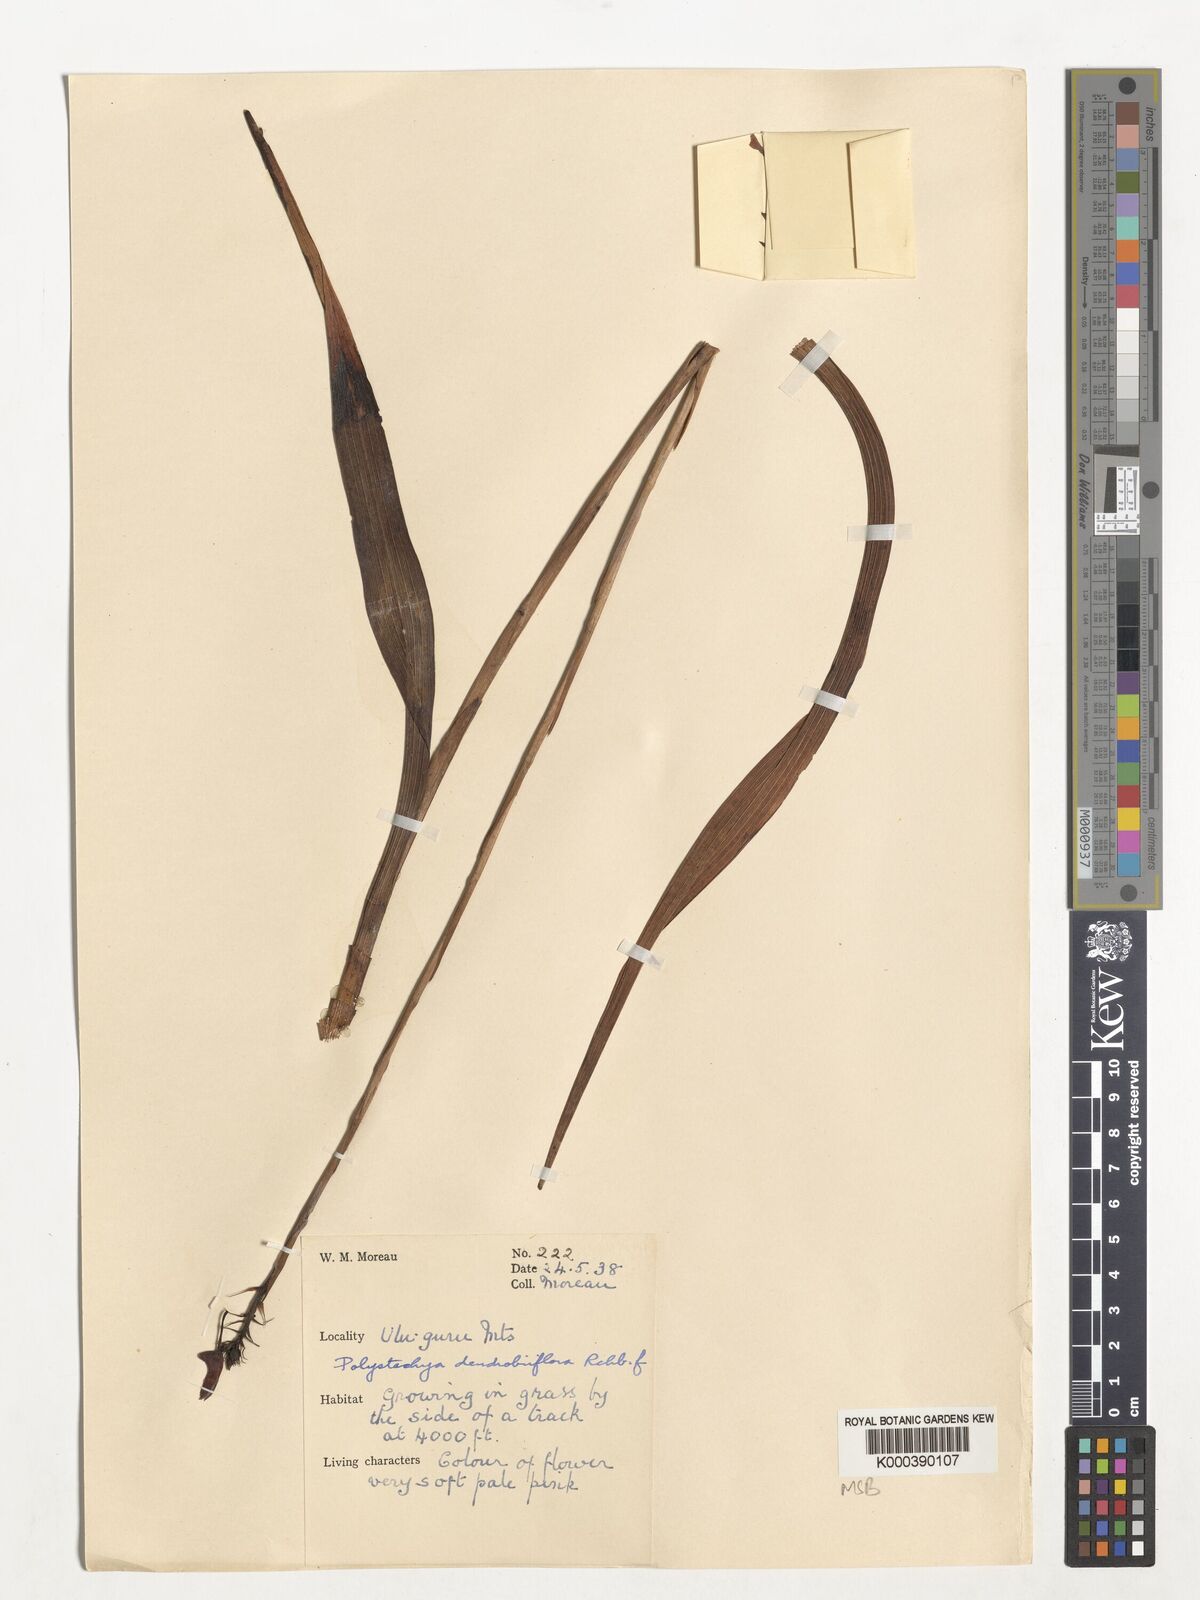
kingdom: Plantae
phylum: Tracheophyta
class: Liliopsida
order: Asparagales
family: Orchidaceae
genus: Polystachya
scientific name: Polystachya longiscapa
